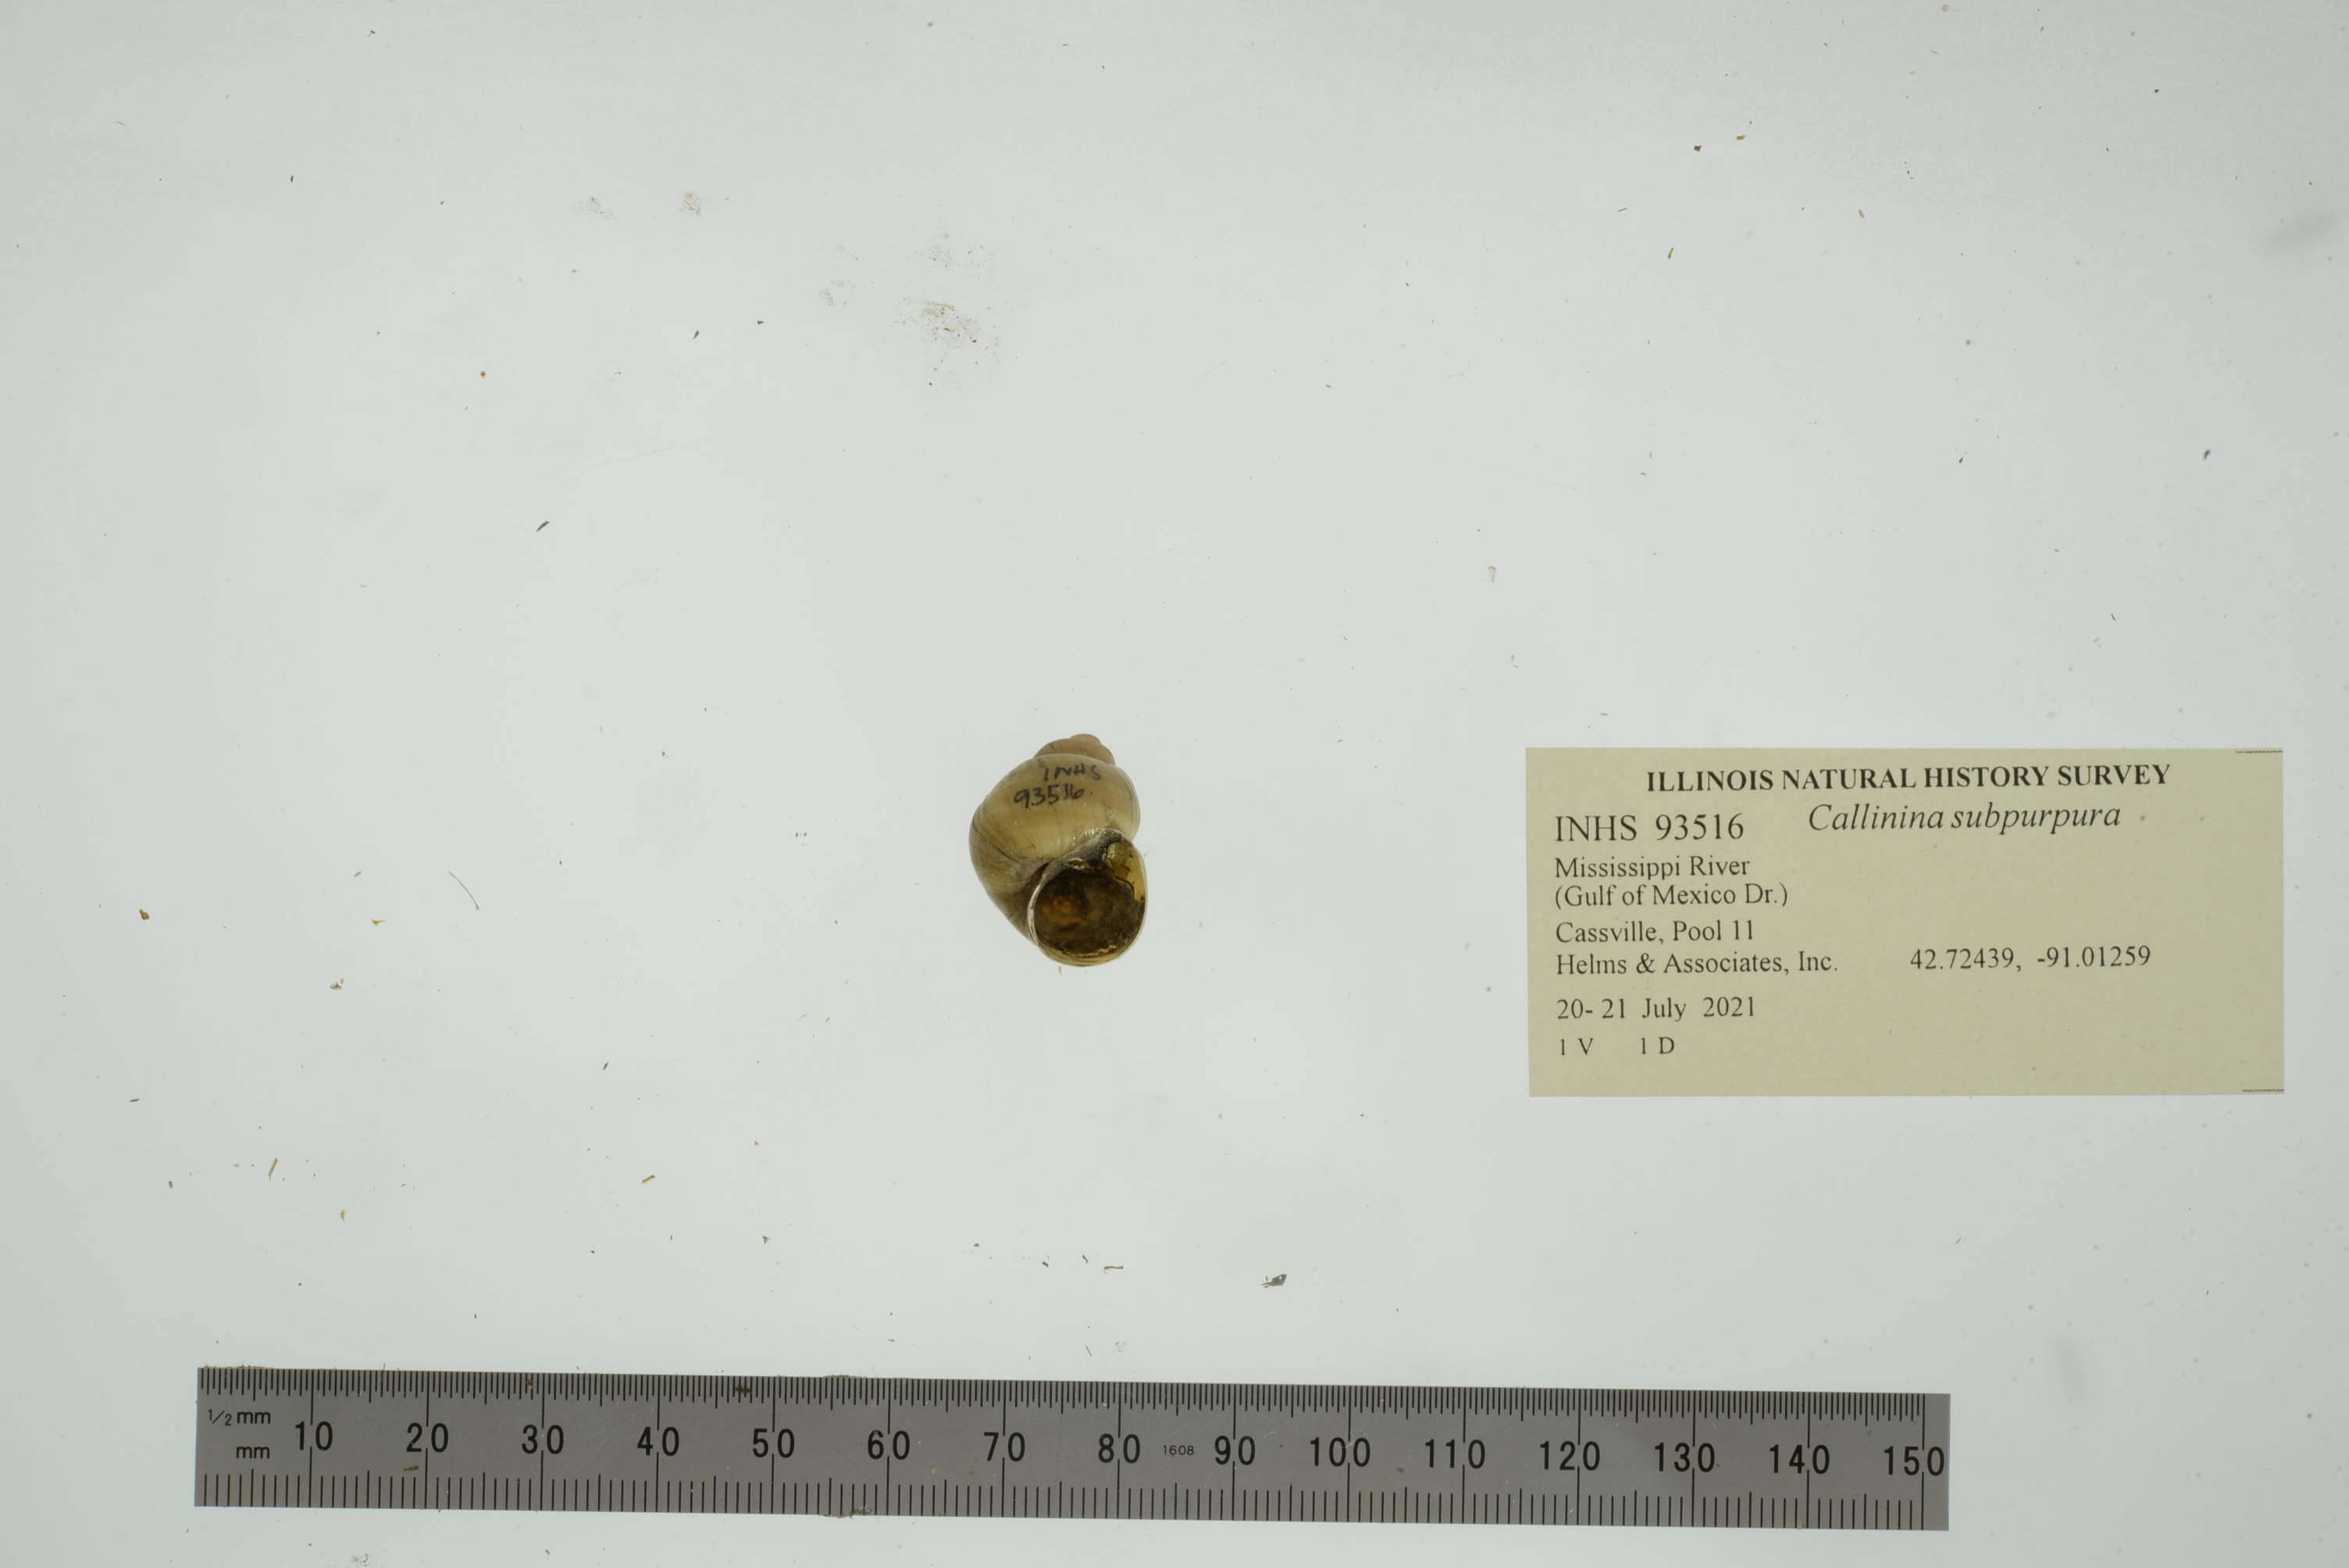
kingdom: Animalia
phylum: Mollusca
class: Gastropoda
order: Architaenioglossa
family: Viviparidae
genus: Callinina
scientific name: Callinina subpurpurea
